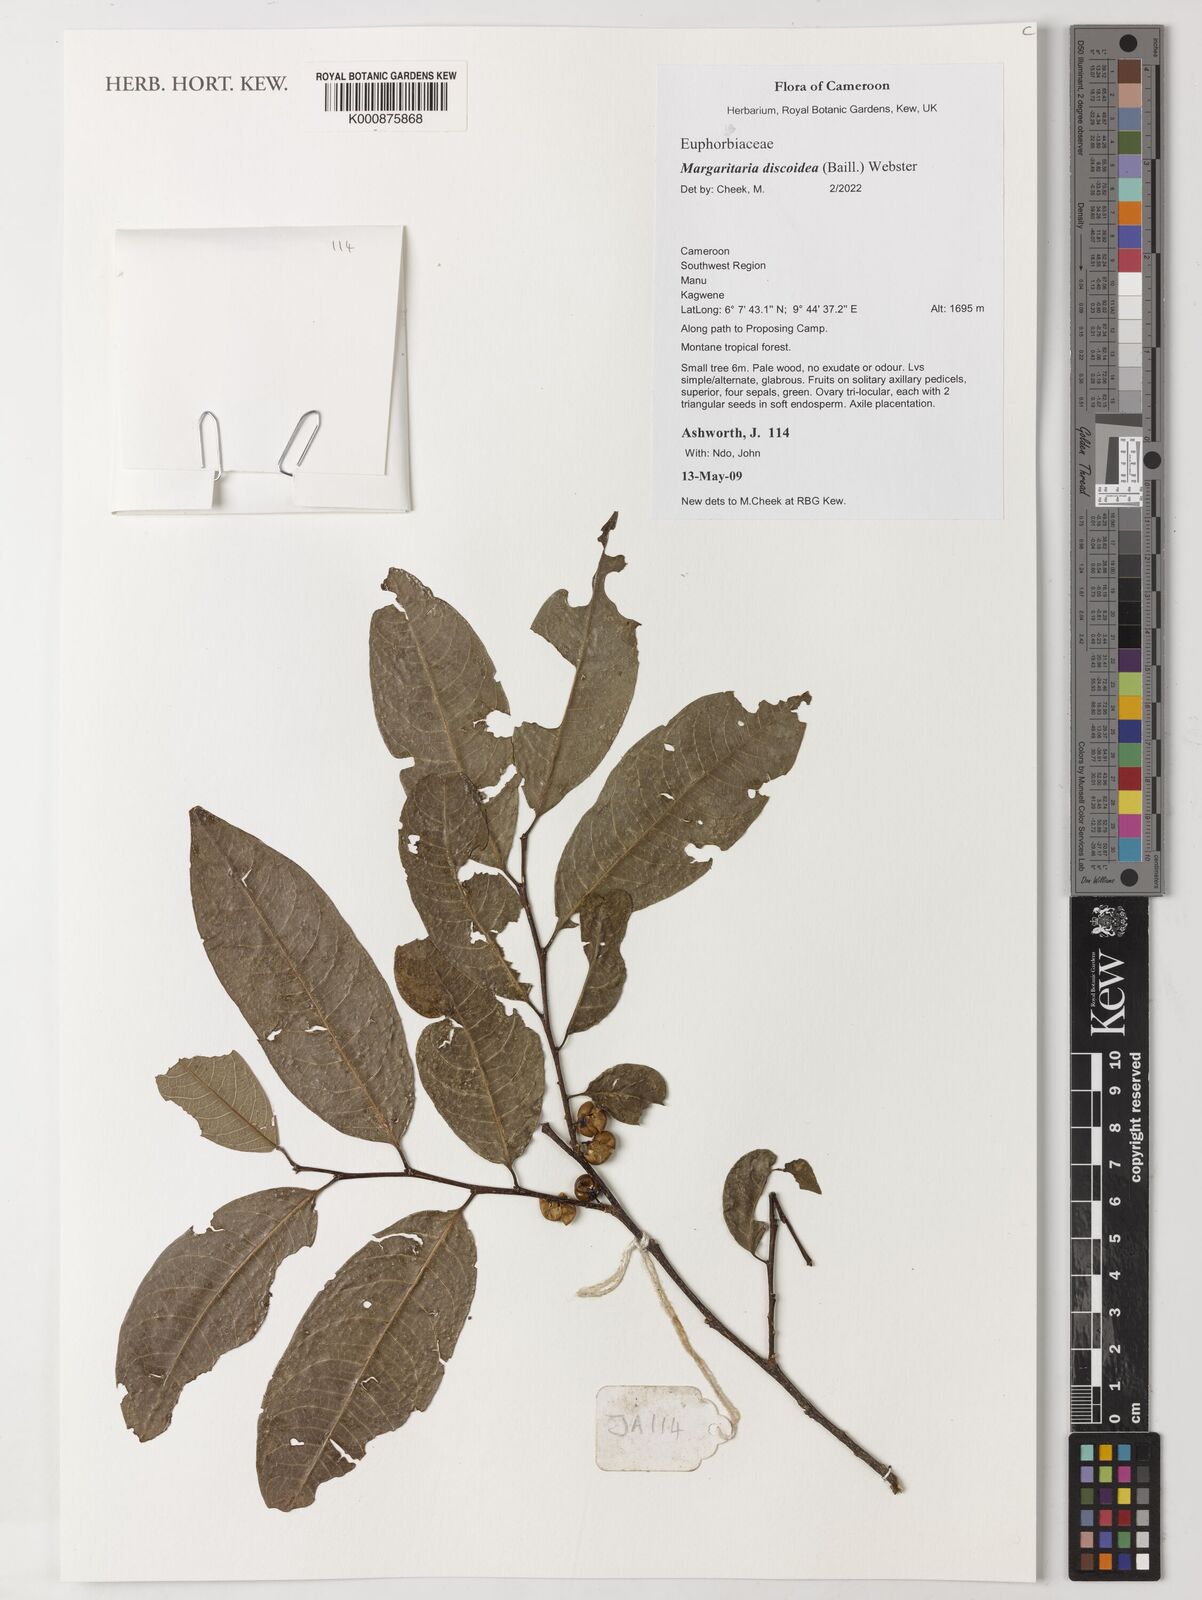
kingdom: Plantae
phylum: Tracheophyta
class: Magnoliopsida
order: Malpighiales
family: Phyllanthaceae
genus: Margaritaria
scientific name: Margaritaria discoidea
